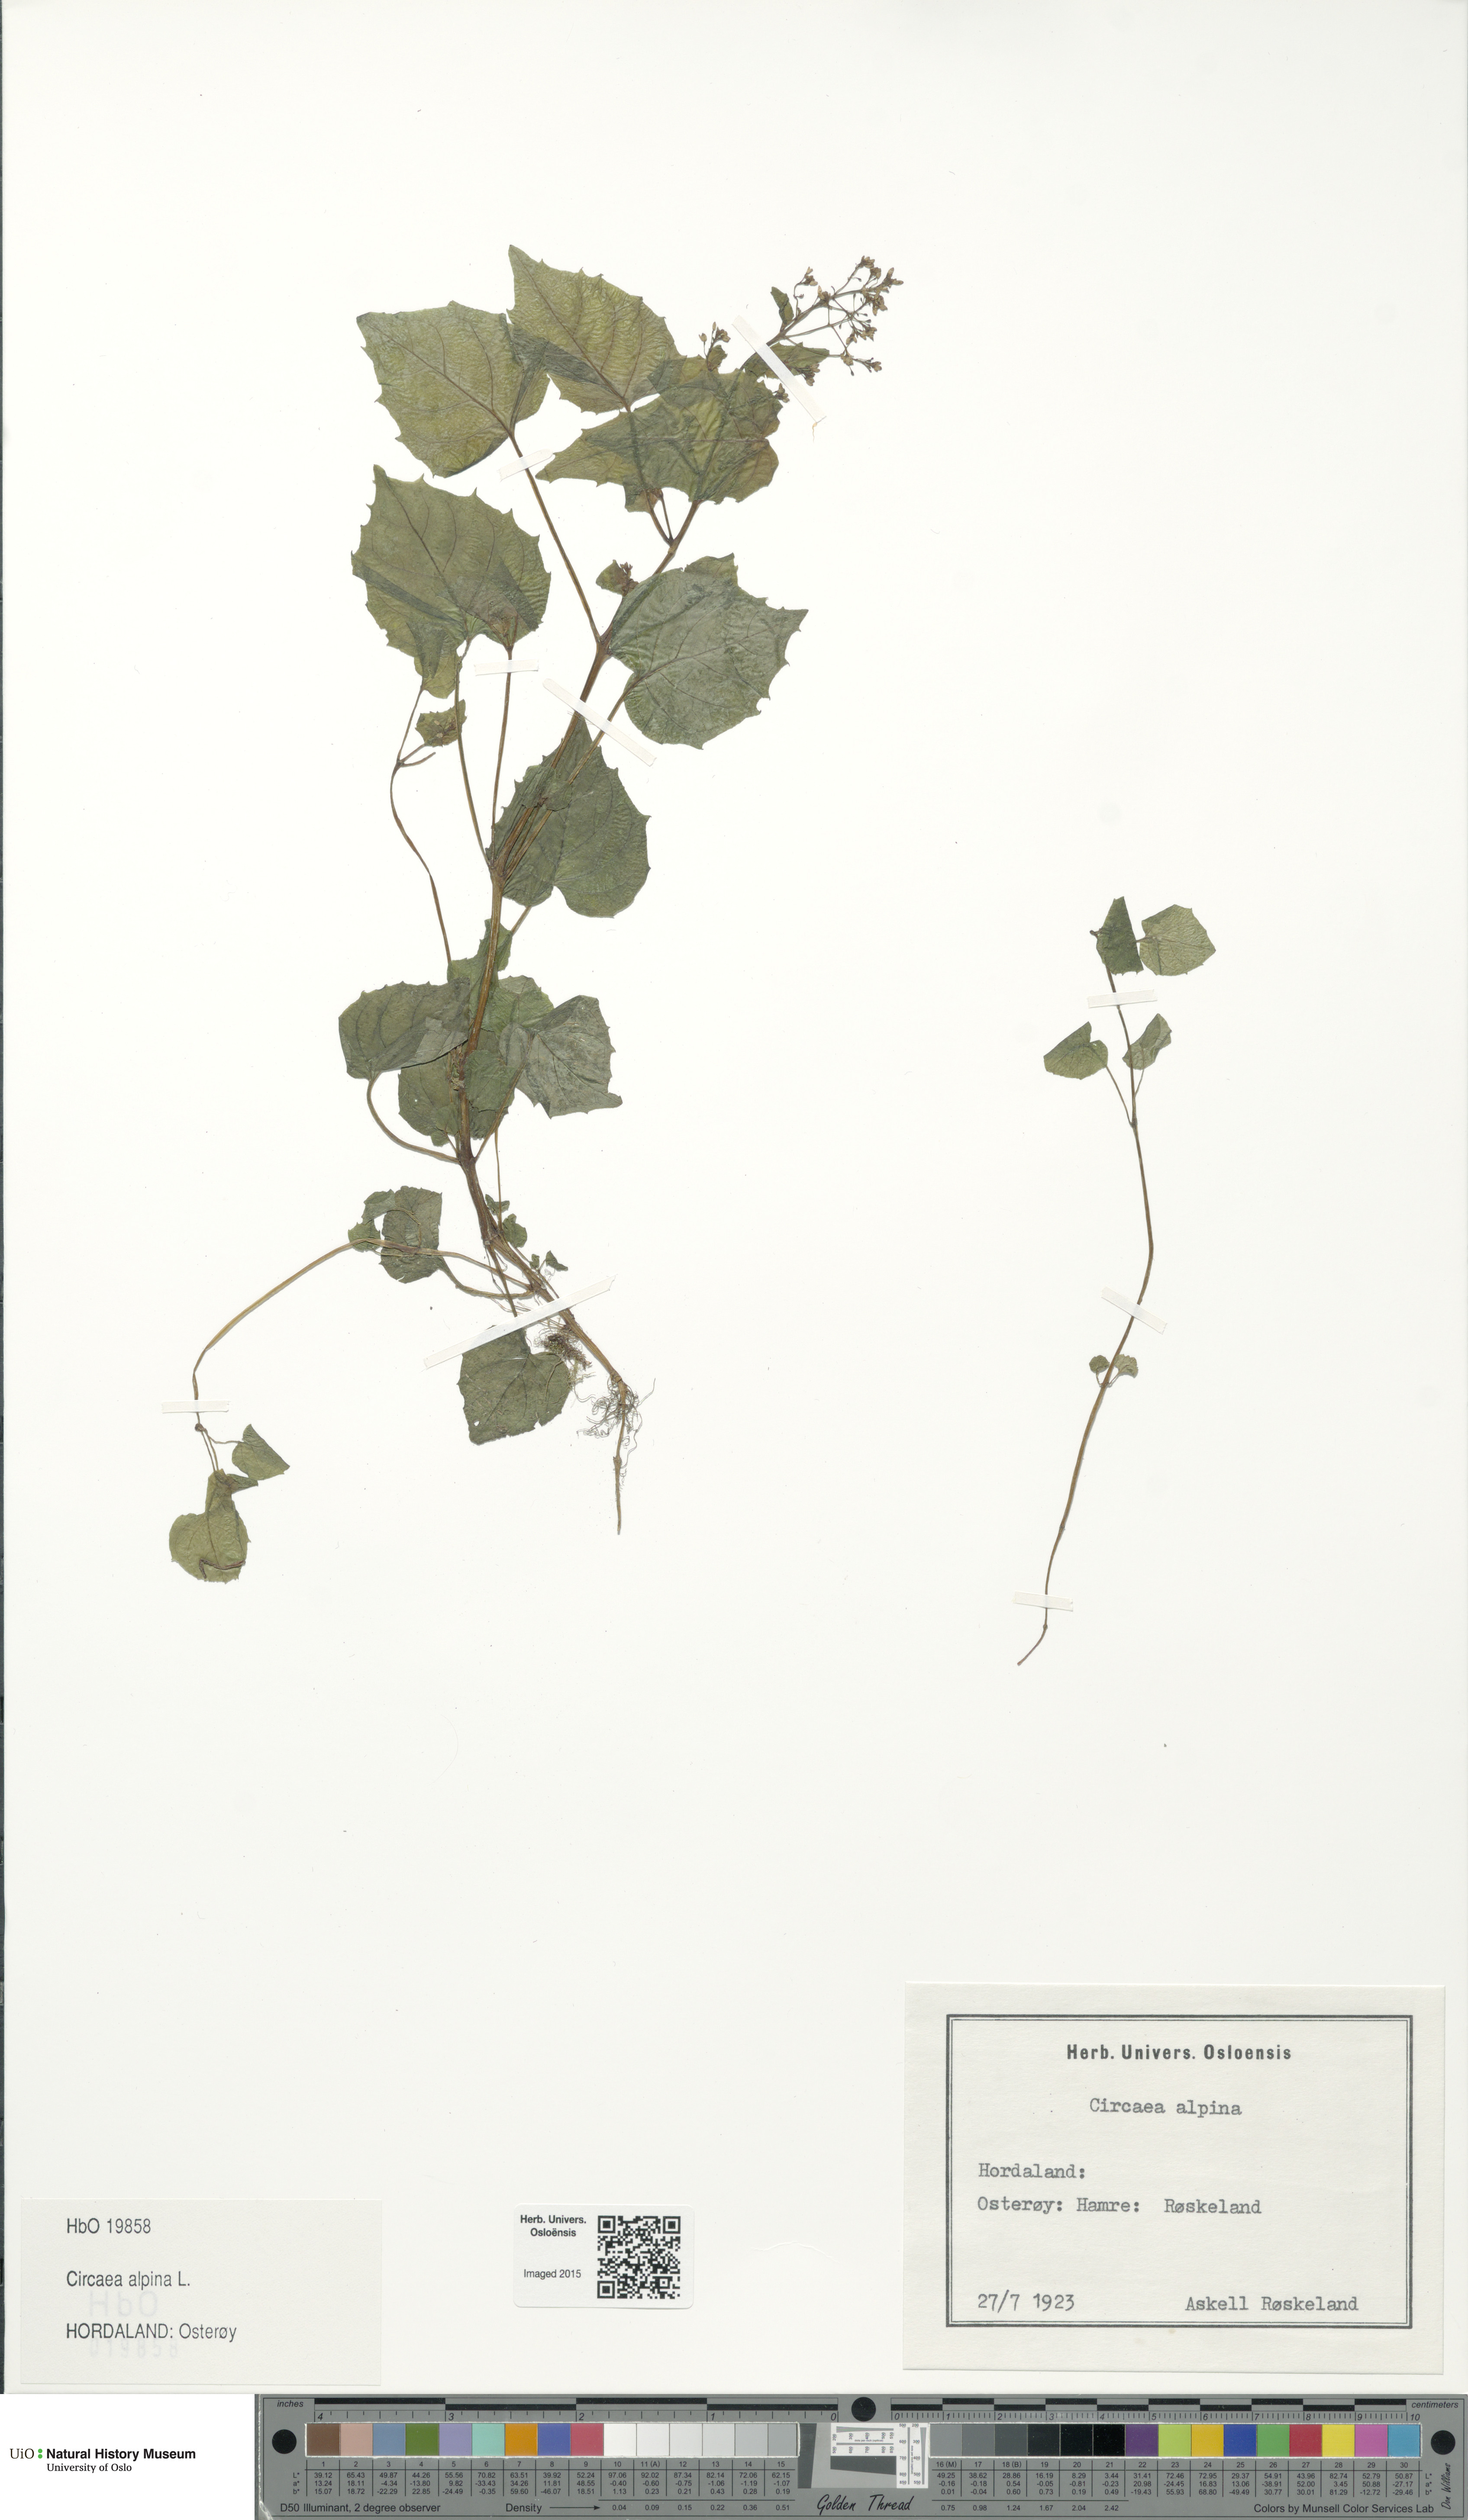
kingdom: Plantae
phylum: Tracheophyta
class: Magnoliopsida
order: Myrtales
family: Onagraceae
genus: Circaea
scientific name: Circaea alpina
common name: Alpine enchanter's-nightshade
